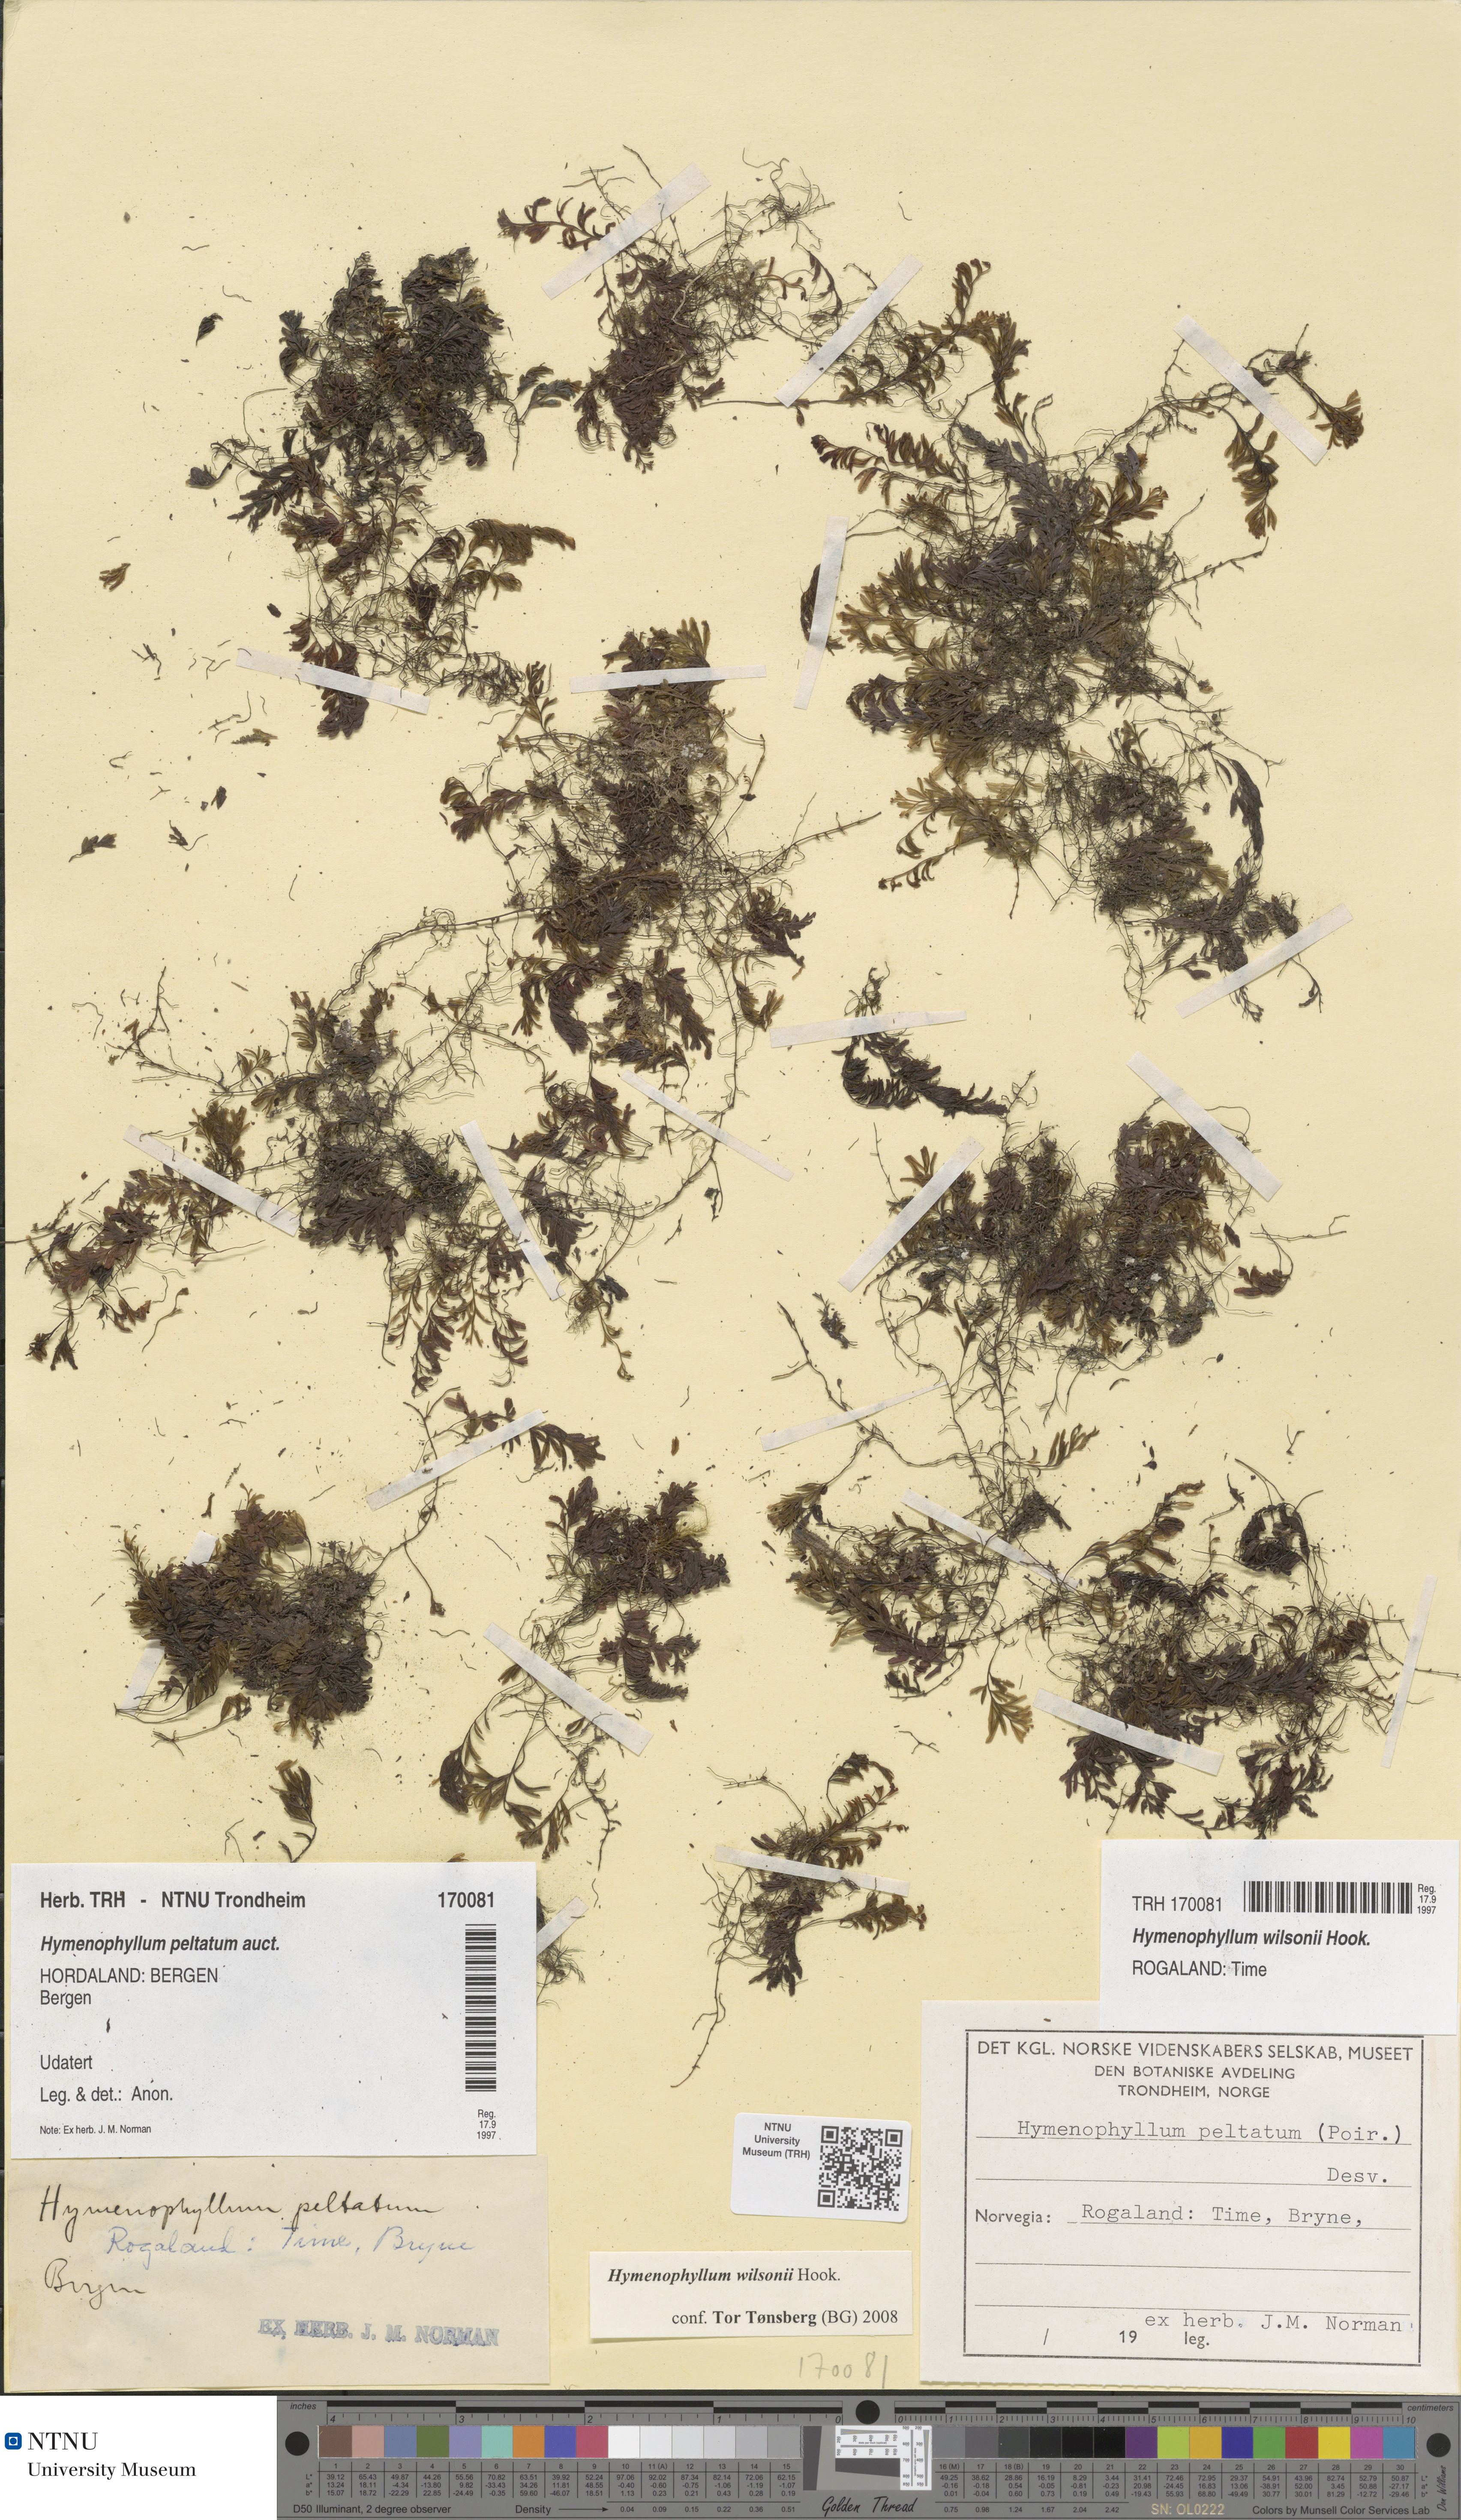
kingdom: Plantae
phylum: Tracheophyta
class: Polypodiopsida
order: Hymenophyllales
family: Hymenophyllaceae
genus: Hymenophyllum
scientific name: Hymenophyllum peltatum
